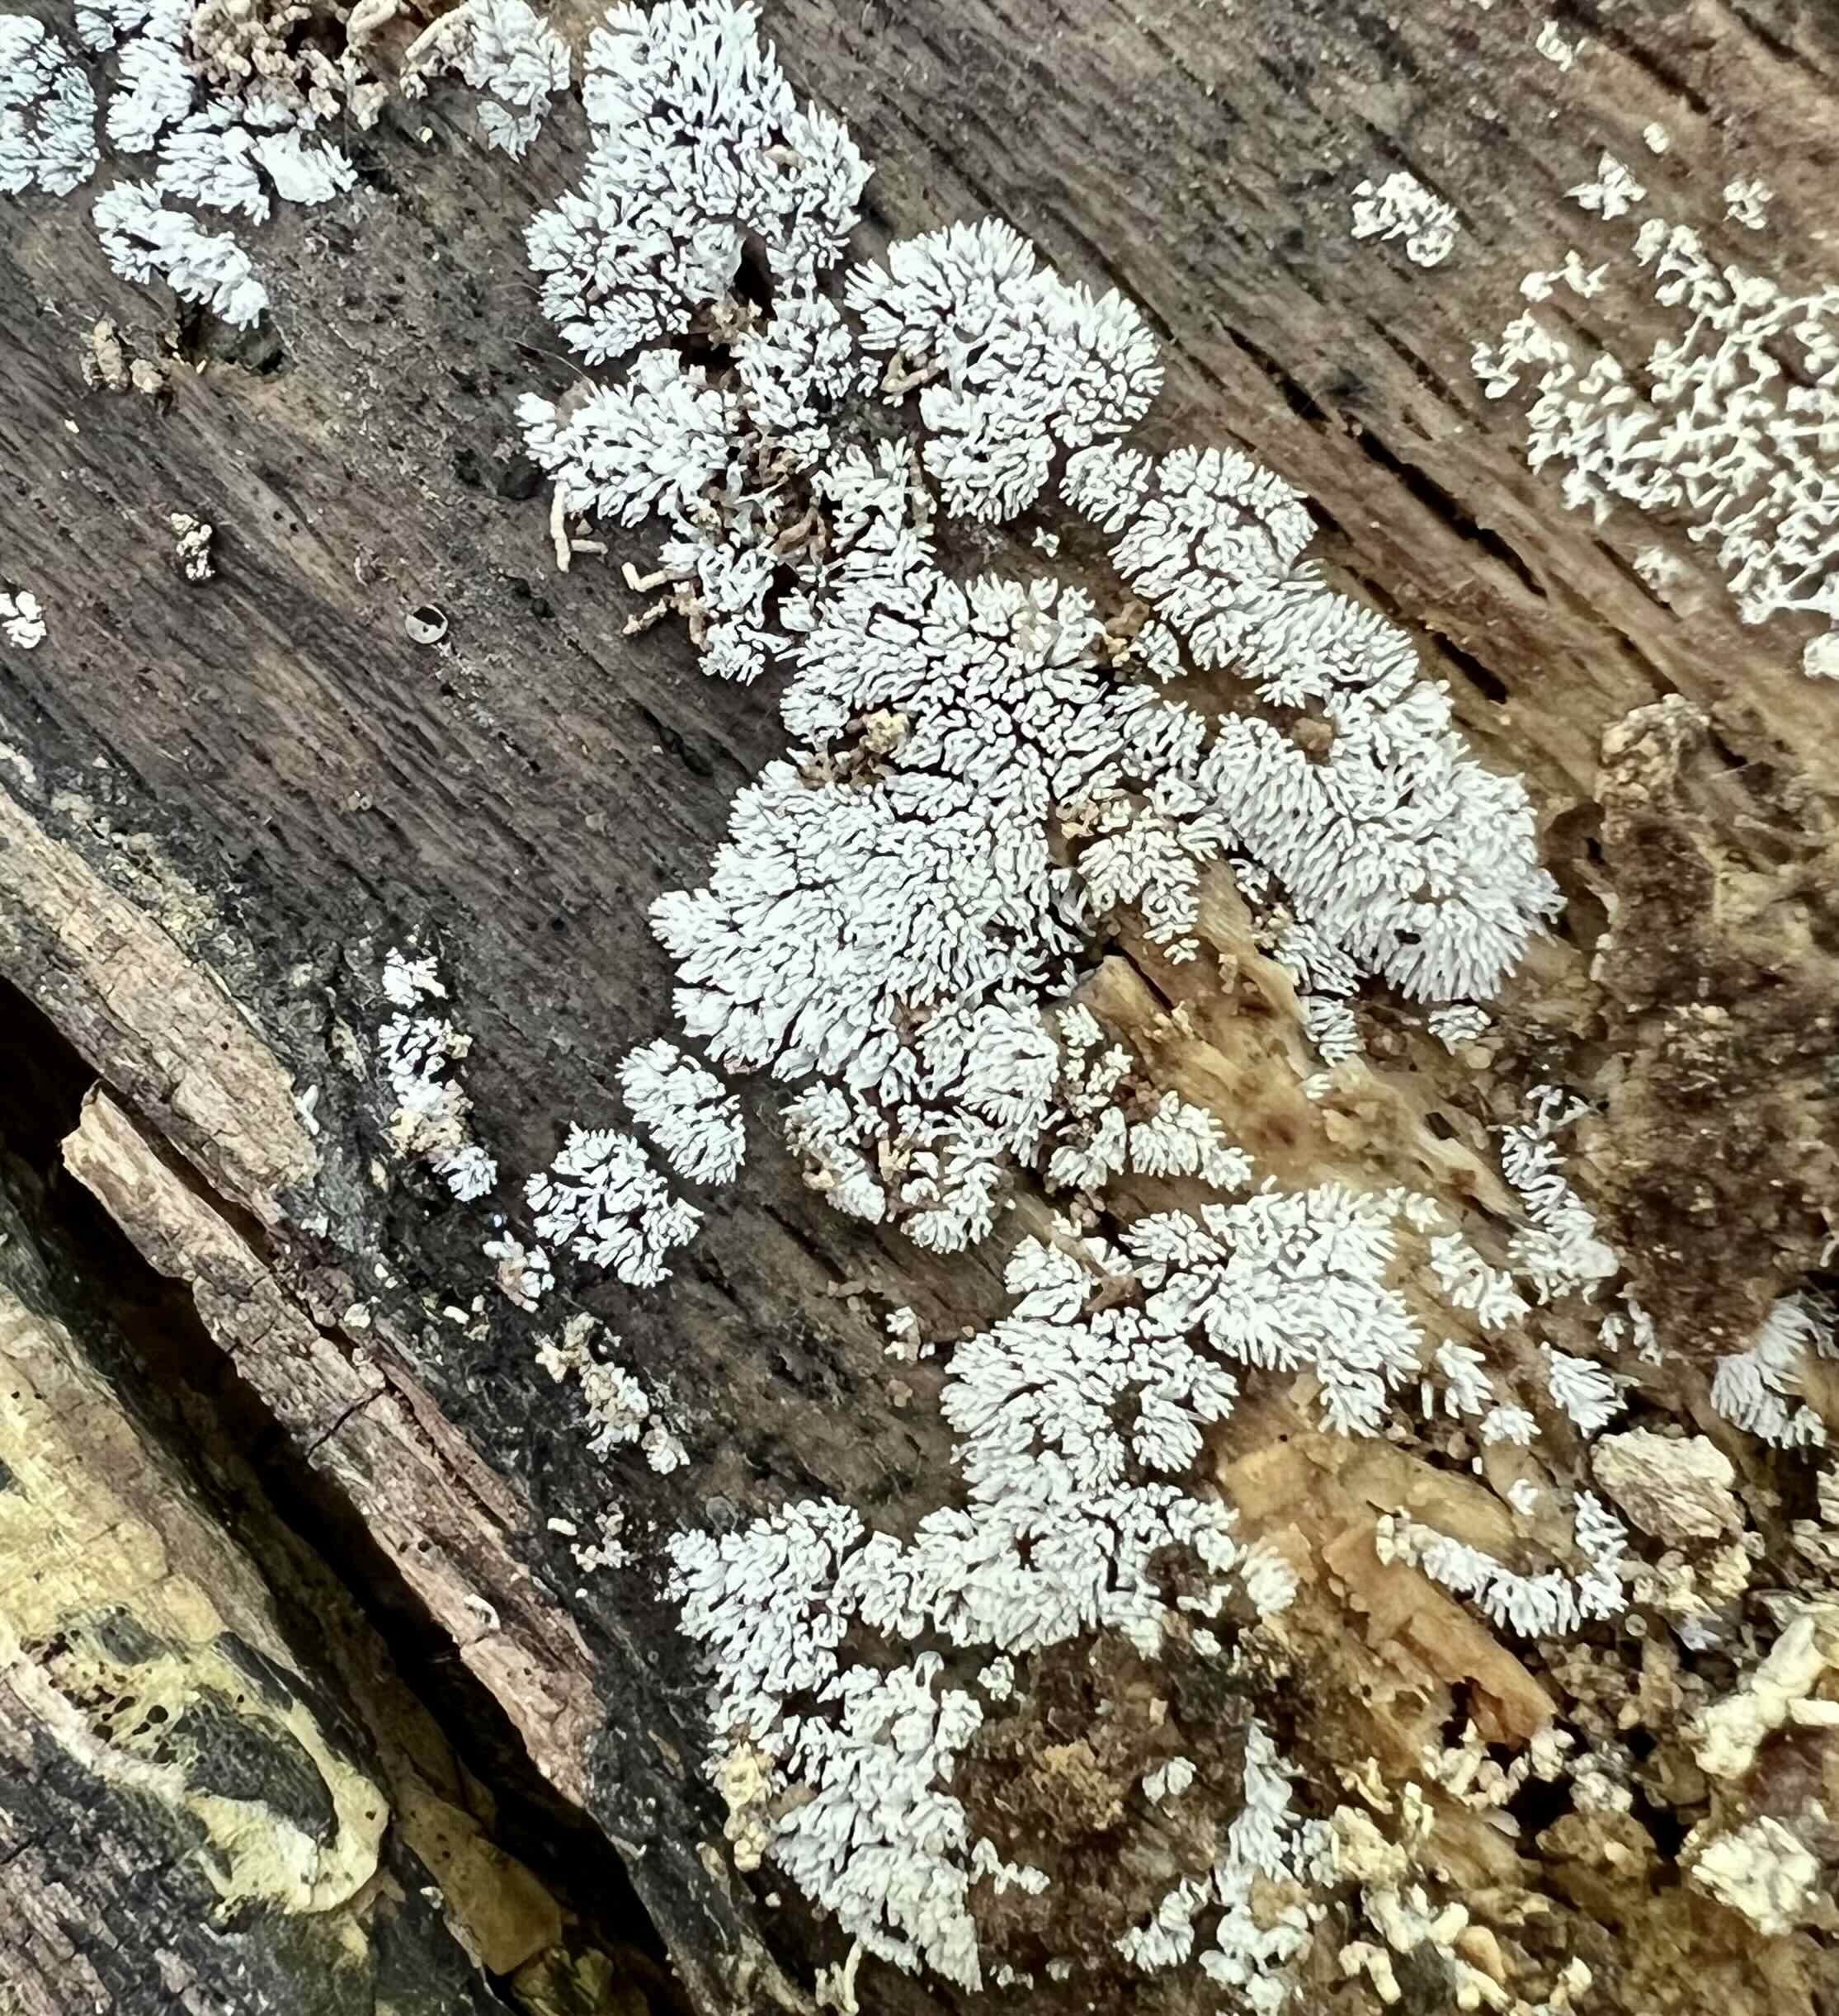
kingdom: Protozoa
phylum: Mycetozoa
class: Protosteliomycetes
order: Ceratiomyxales
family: Ceratiomyxaceae
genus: Ceratiomyxa
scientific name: Ceratiomyxa fruticulosa
